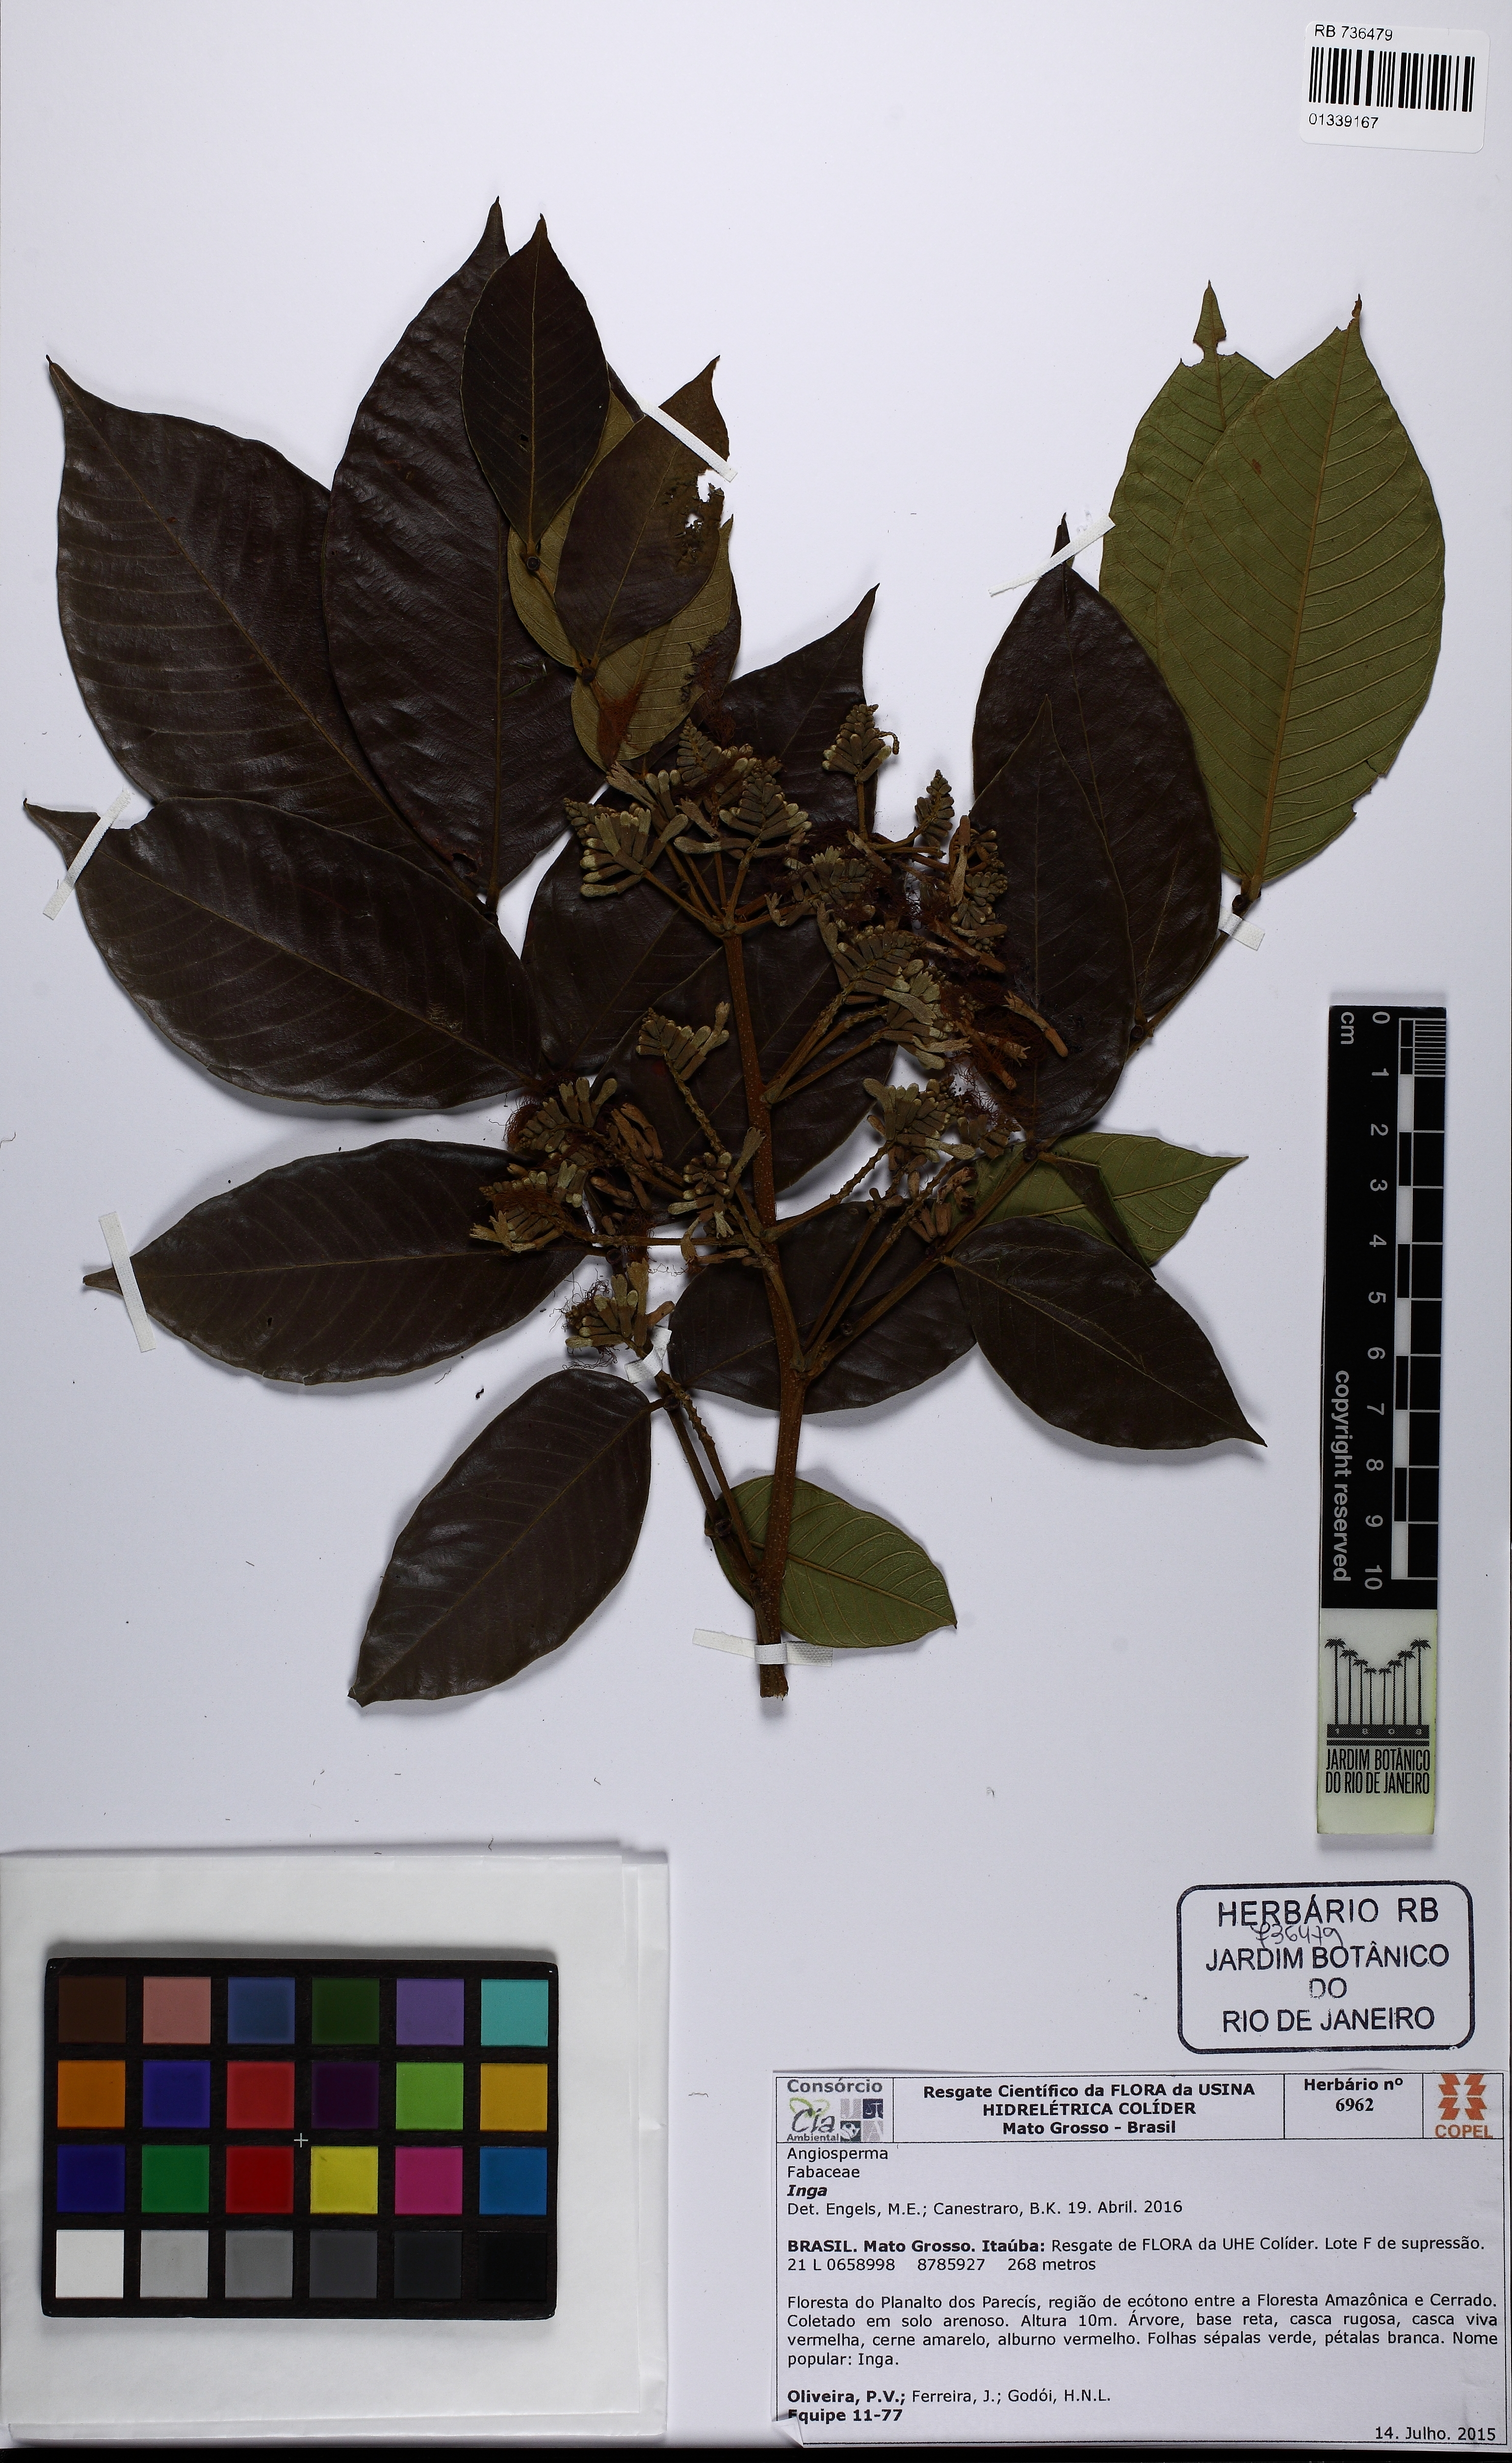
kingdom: Plantae
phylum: Tracheophyta
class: Magnoliopsida
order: Fabales
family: Fabaceae
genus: Inga
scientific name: Inga
